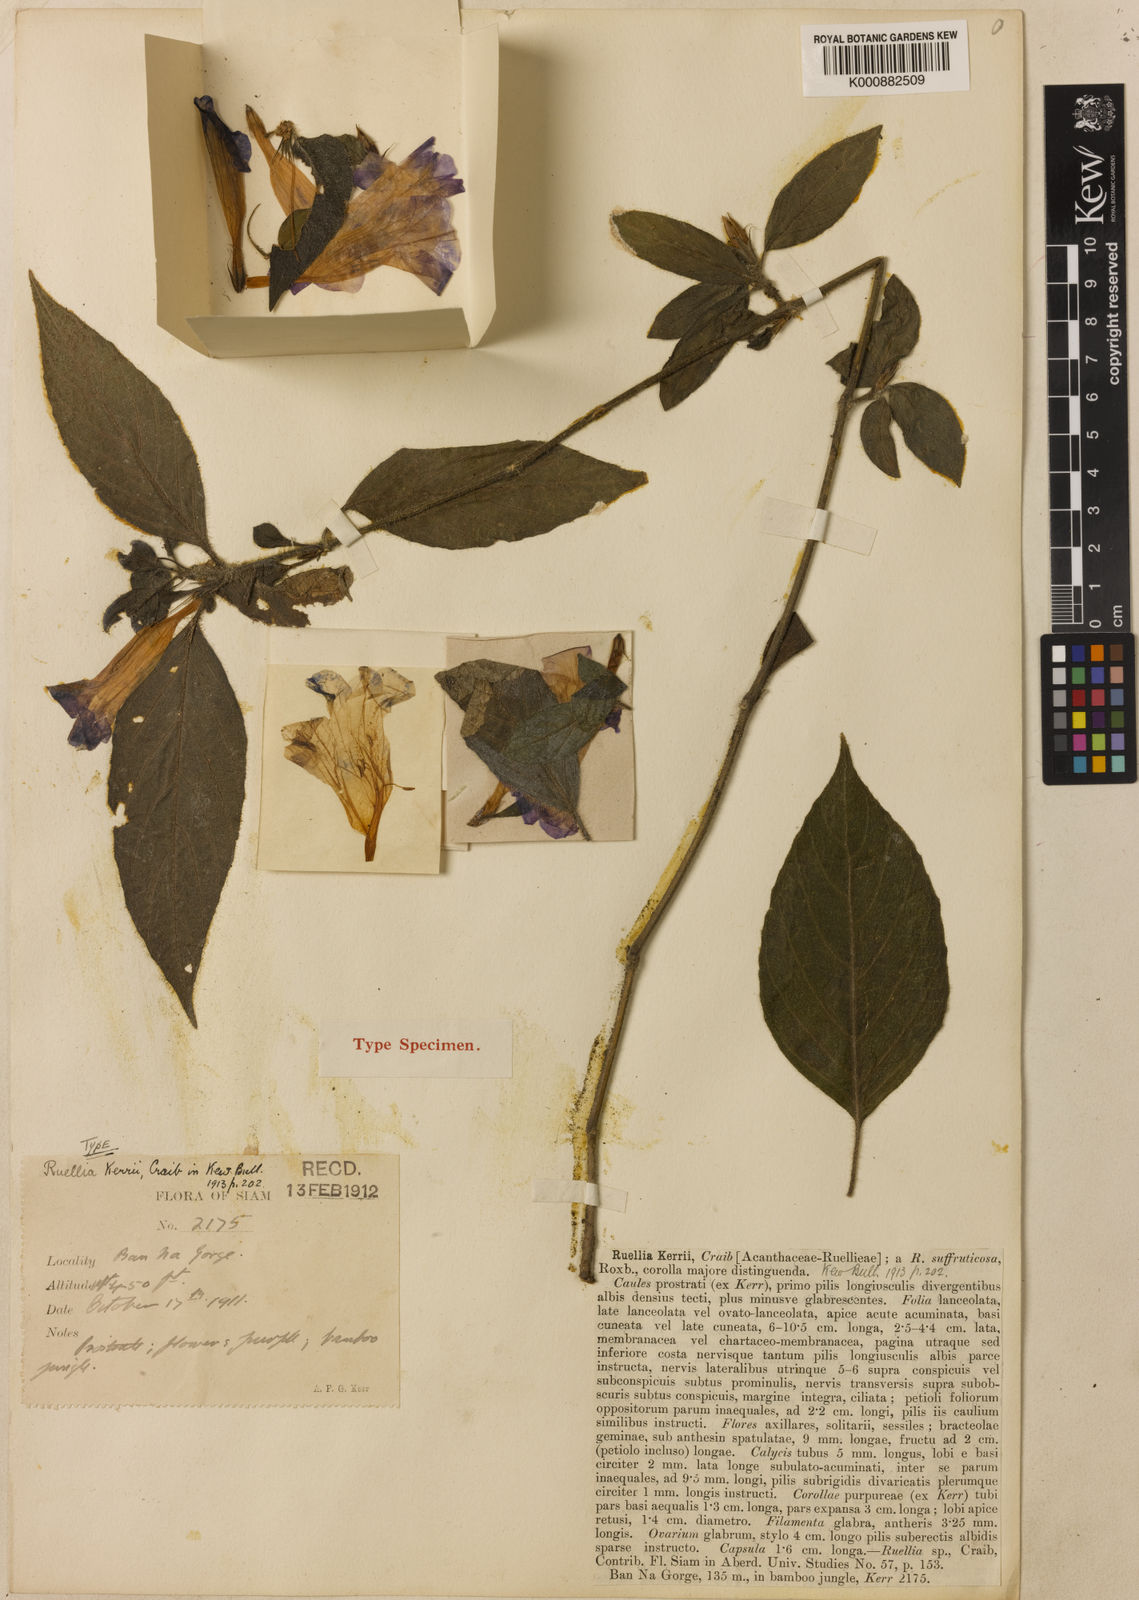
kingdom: Plantae
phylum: Tracheophyta
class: Magnoliopsida
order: Lamiales
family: Acanthaceae
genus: Ruellia
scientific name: Ruellia kerrii
